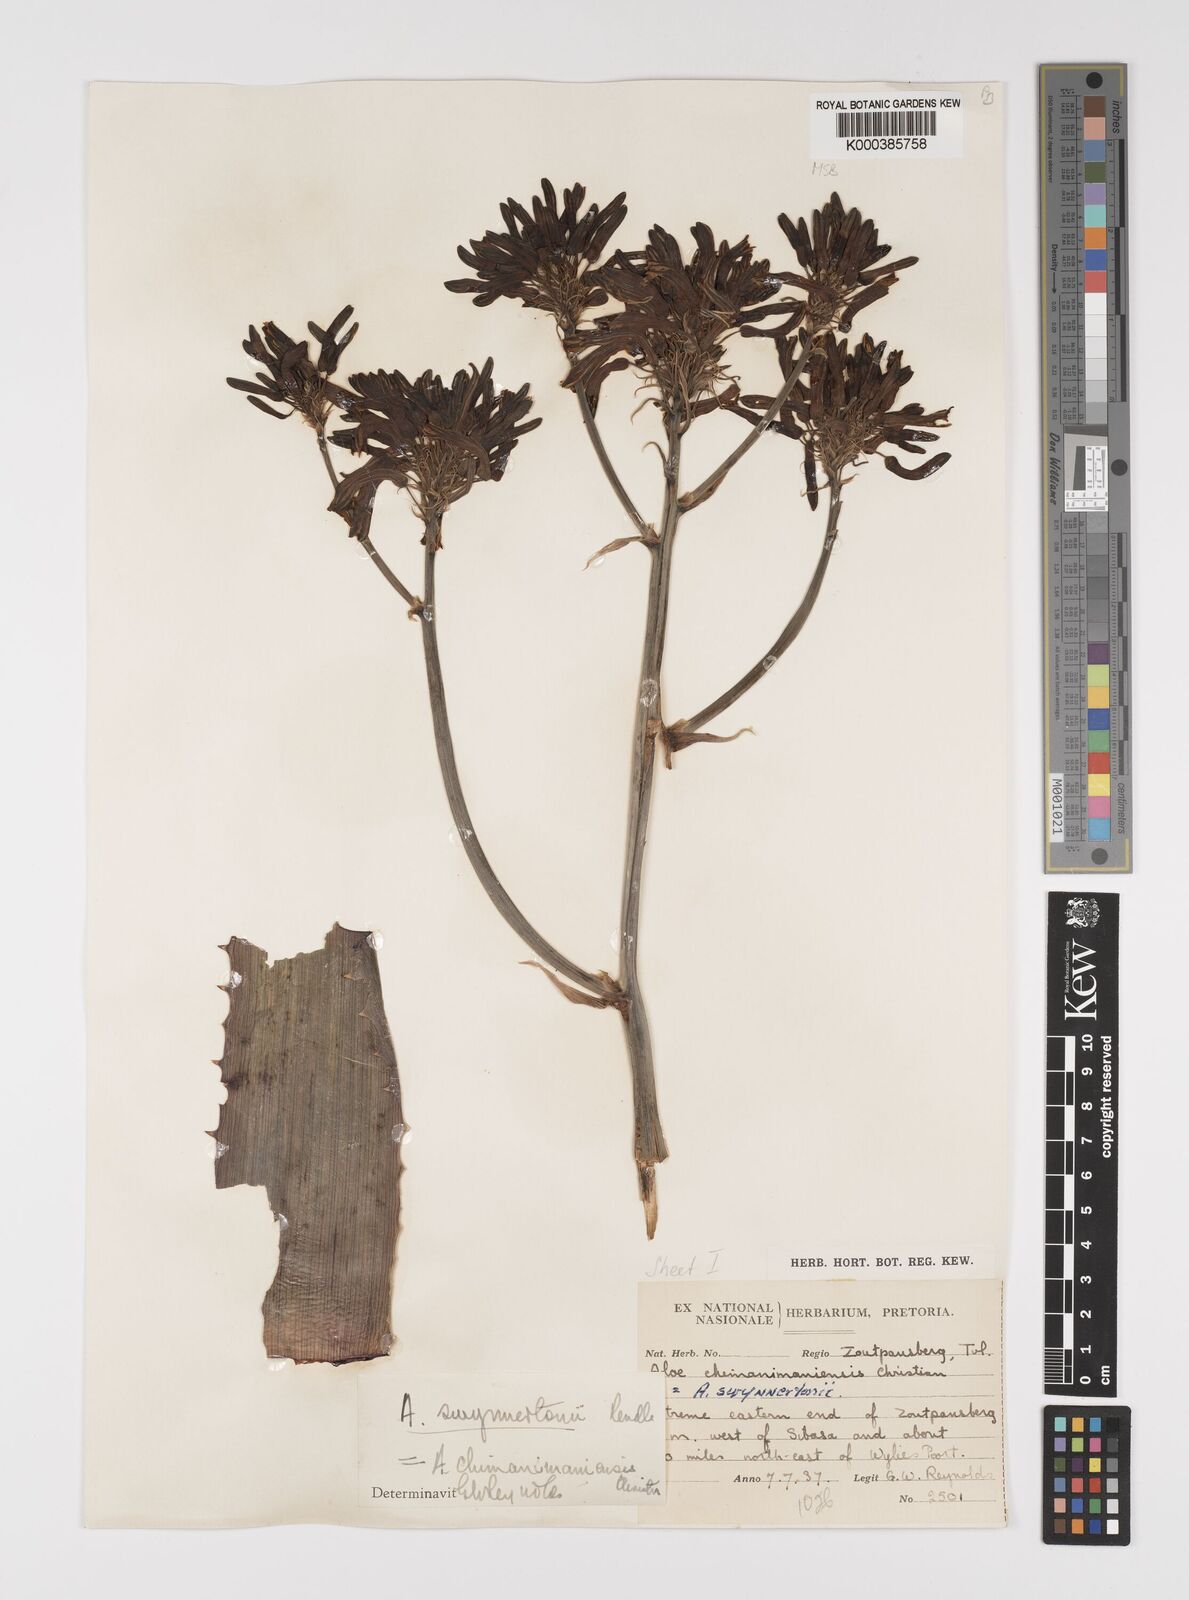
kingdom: Plantae
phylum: Tracheophyta
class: Liliopsida
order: Asparagales
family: Asphodelaceae
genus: Aloe
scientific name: Aloe swynnertonii
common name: Swynnerton's aloe
